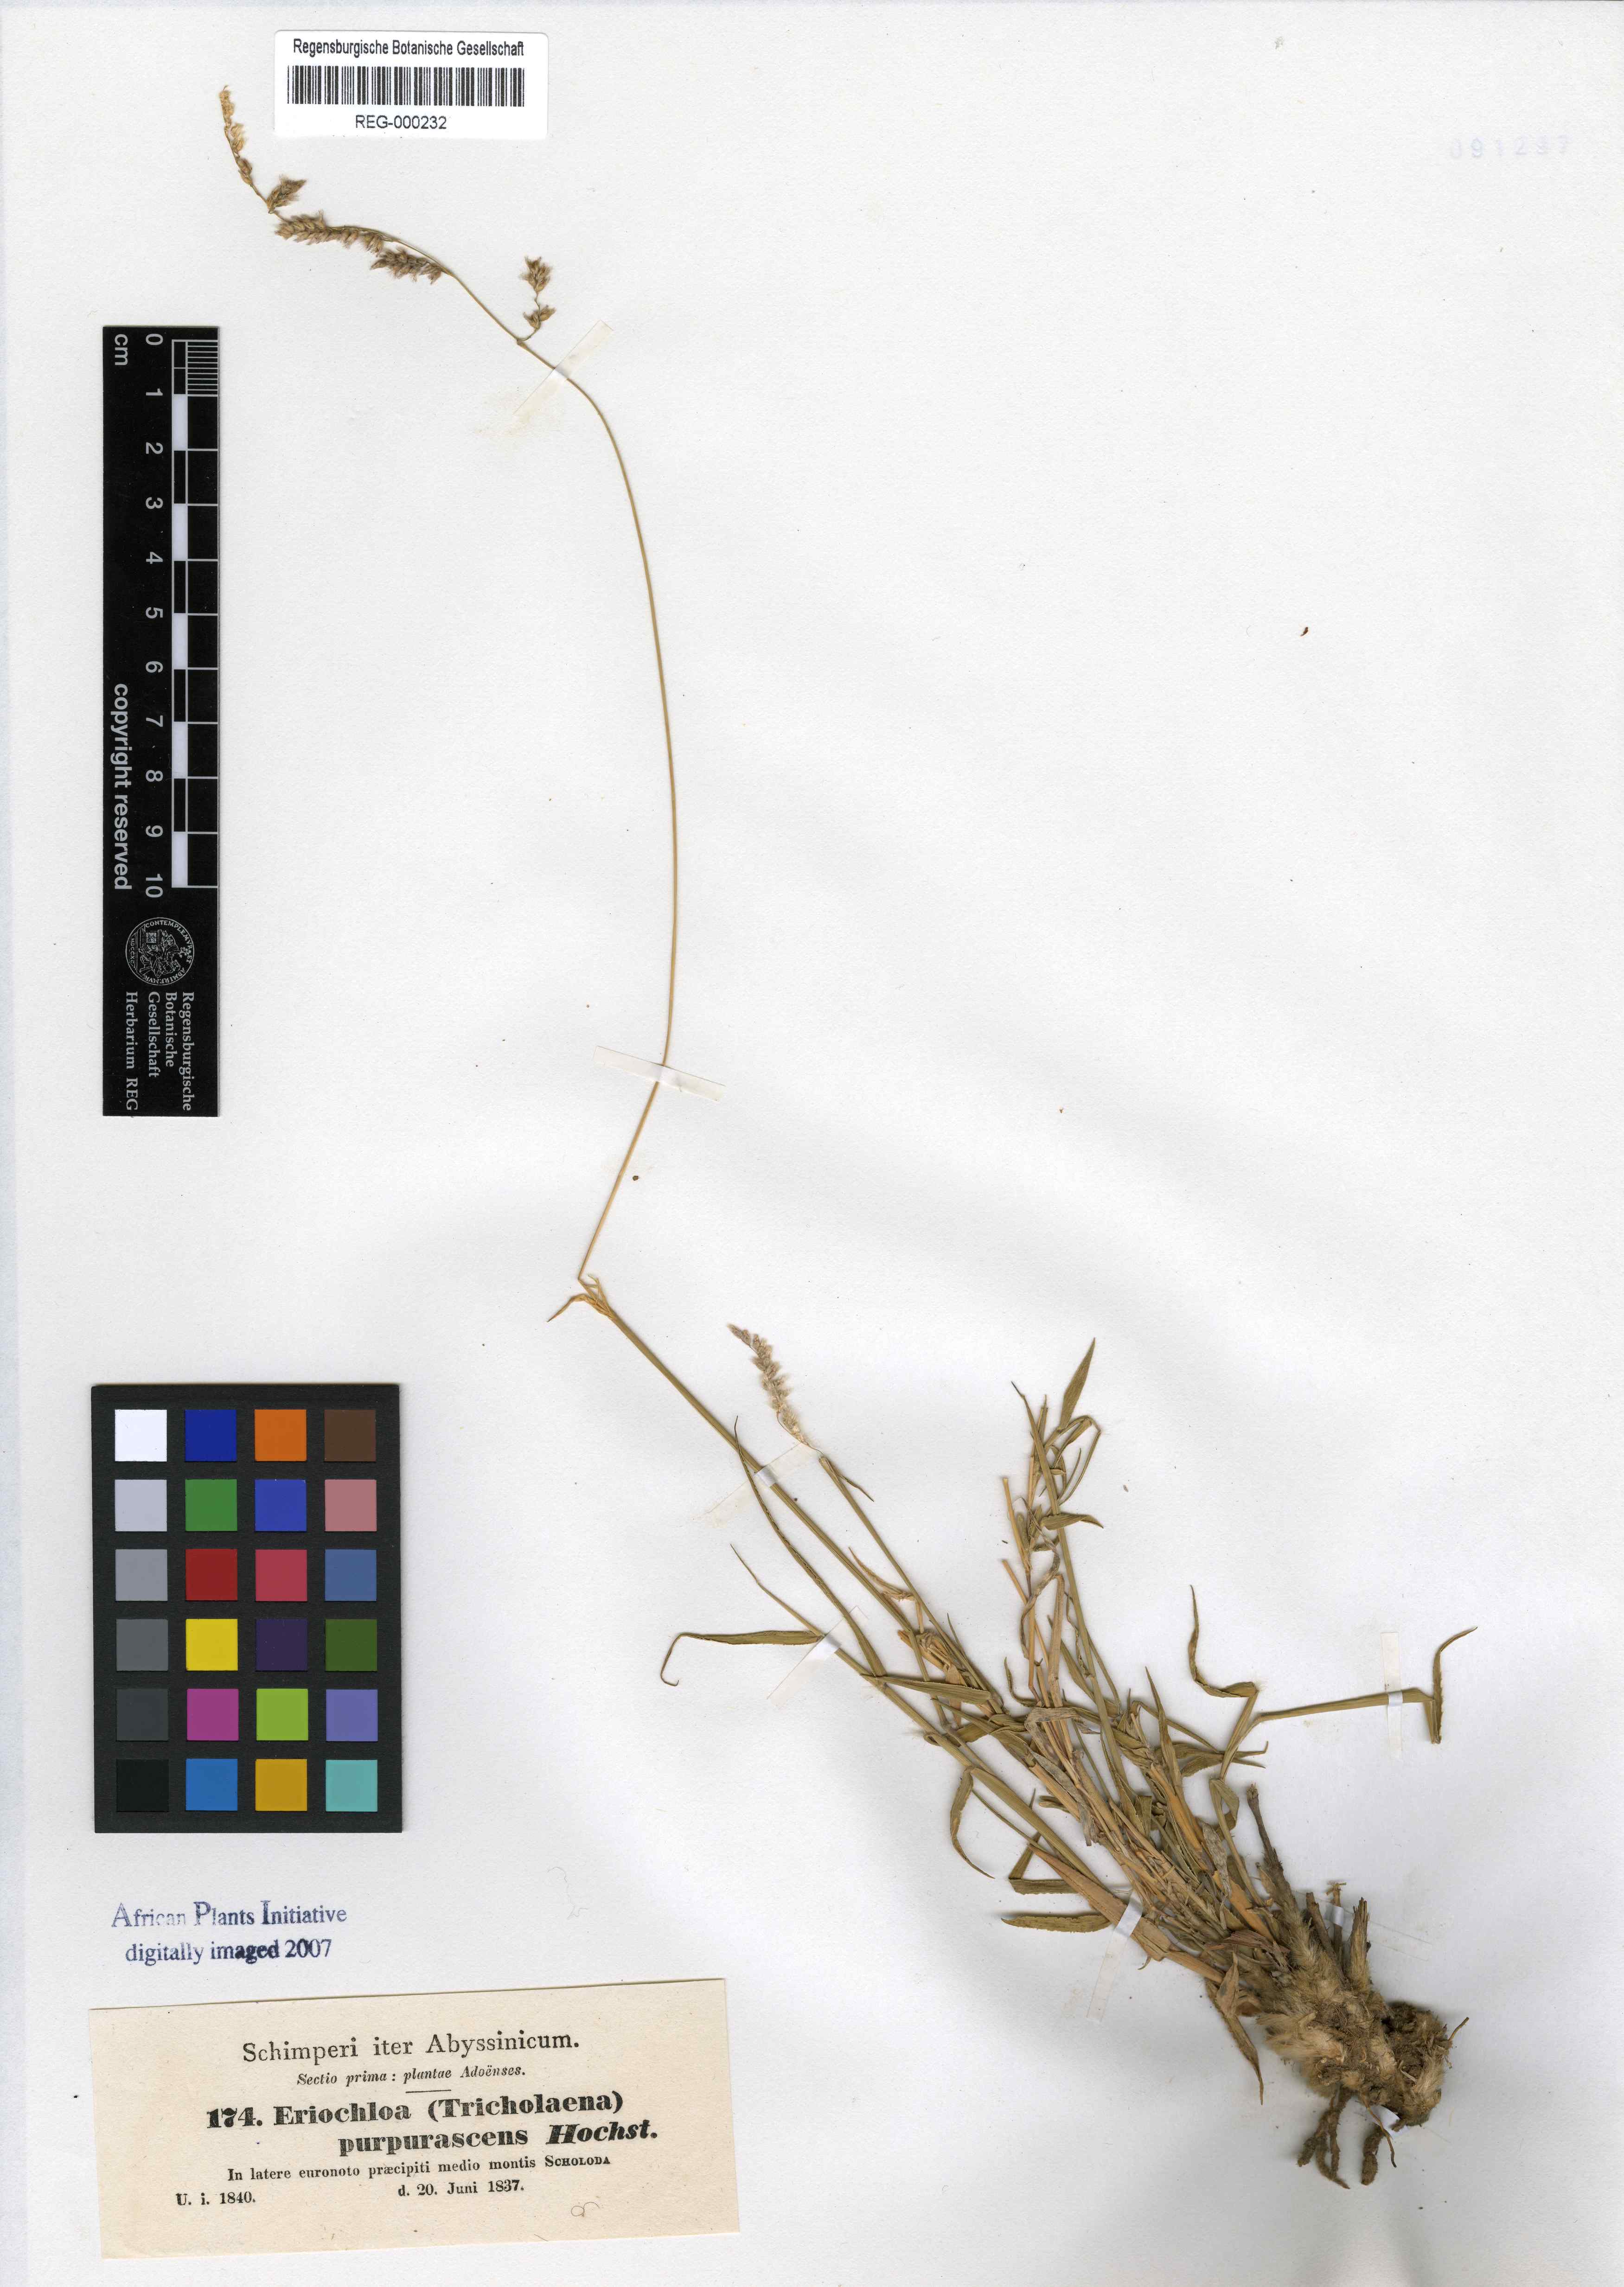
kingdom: Plantae
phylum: Tracheophyta
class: Liliopsida
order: Poales
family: Poaceae
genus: Urochloa
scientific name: Urochloa serrata
